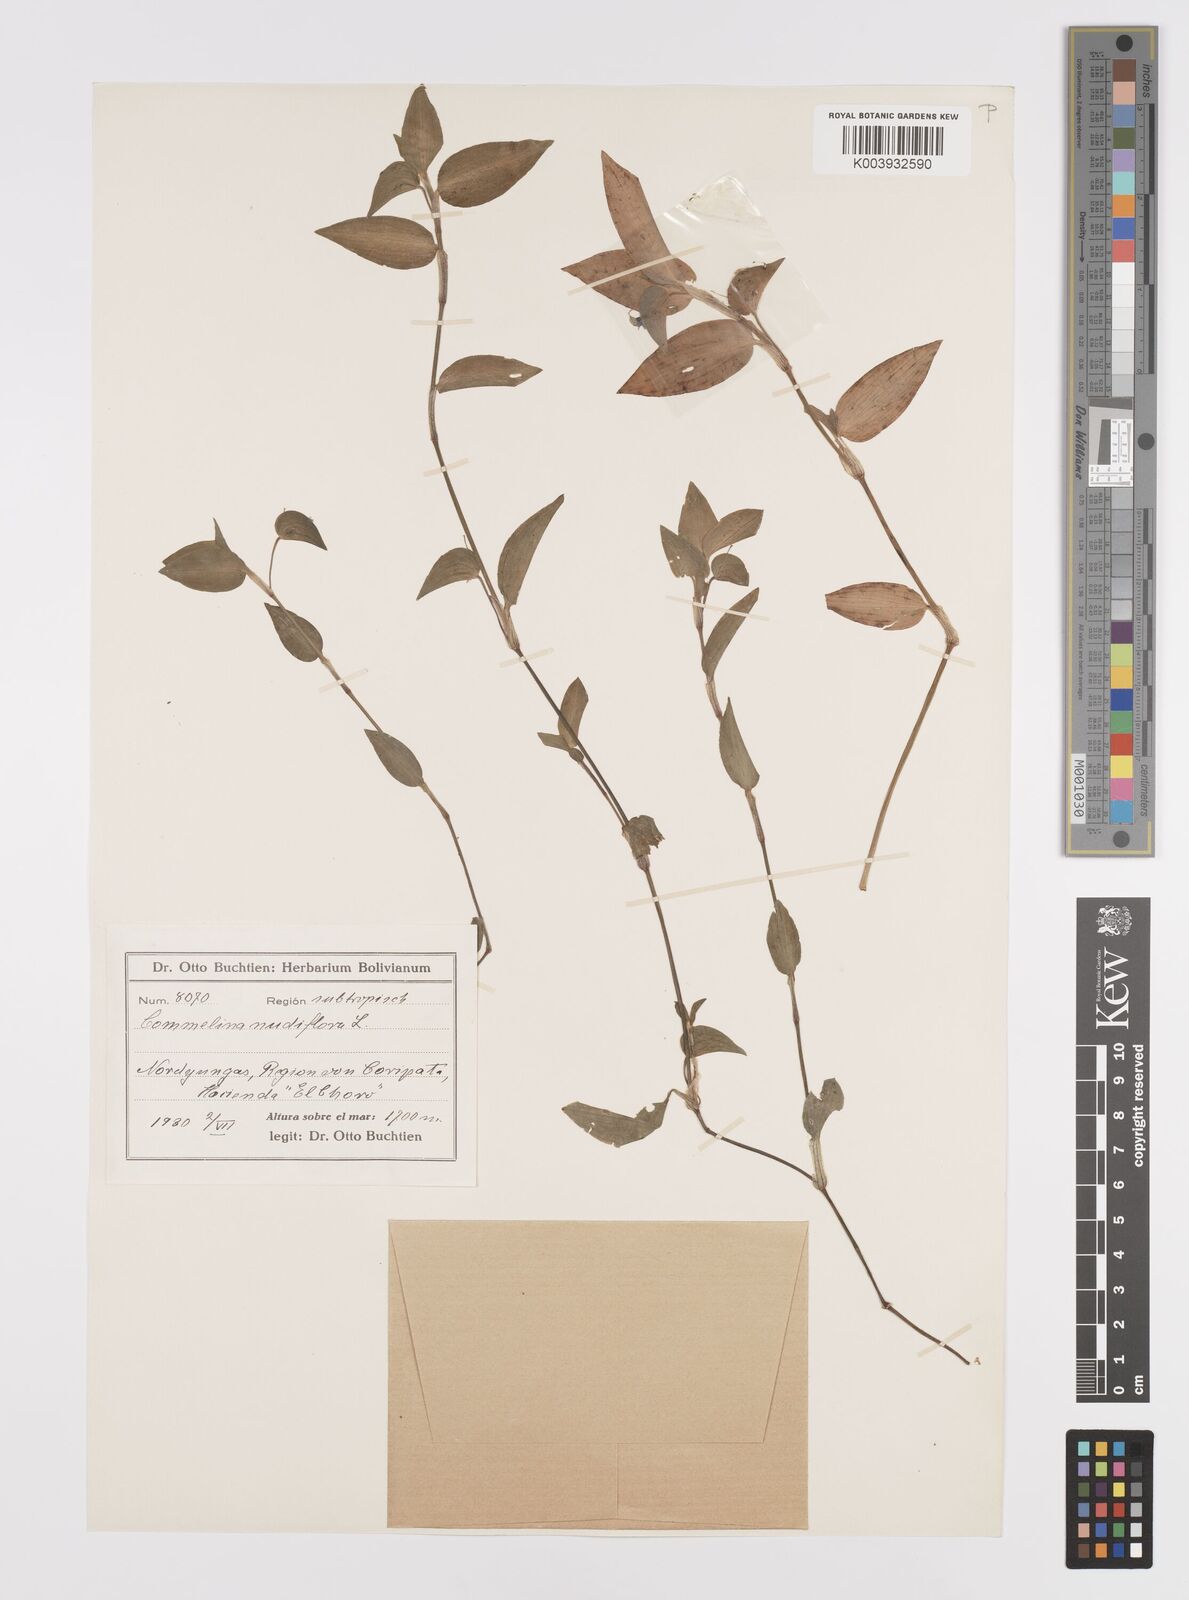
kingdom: Plantae
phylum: Tracheophyta
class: Liliopsida
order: Commelinales
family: Commelinaceae
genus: Commelina
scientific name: Commelina diffusa
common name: Climbing dayflower
